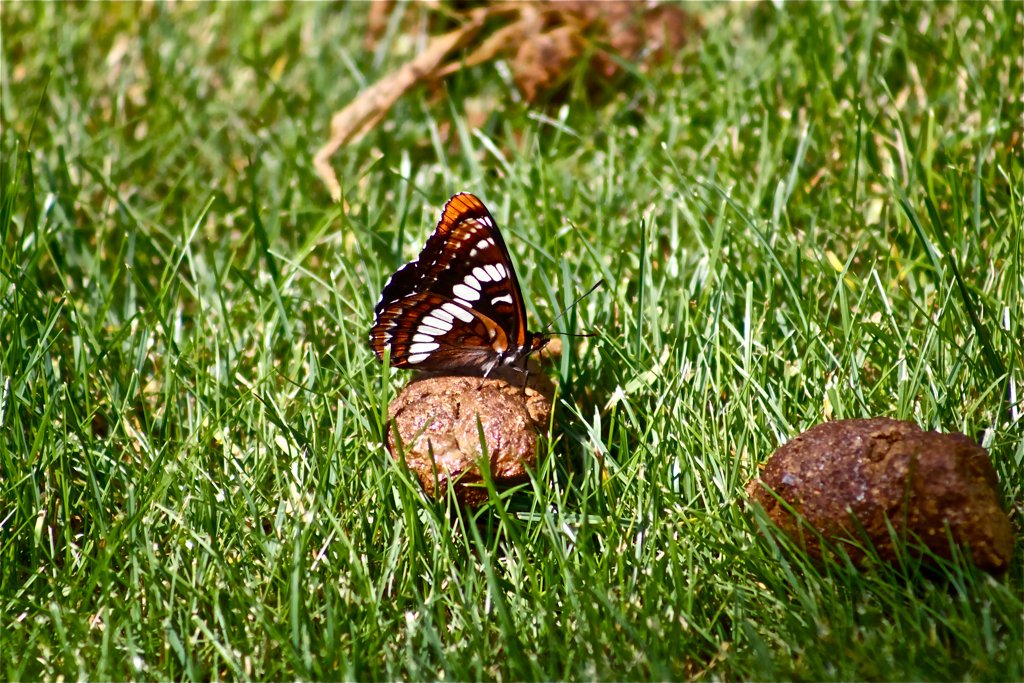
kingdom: Animalia
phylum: Arthropoda
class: Insecta
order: Lepidoptera
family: Nymphalidae
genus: Limenitis
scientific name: Limenitis lorquini
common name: Lorquin's Admiral
